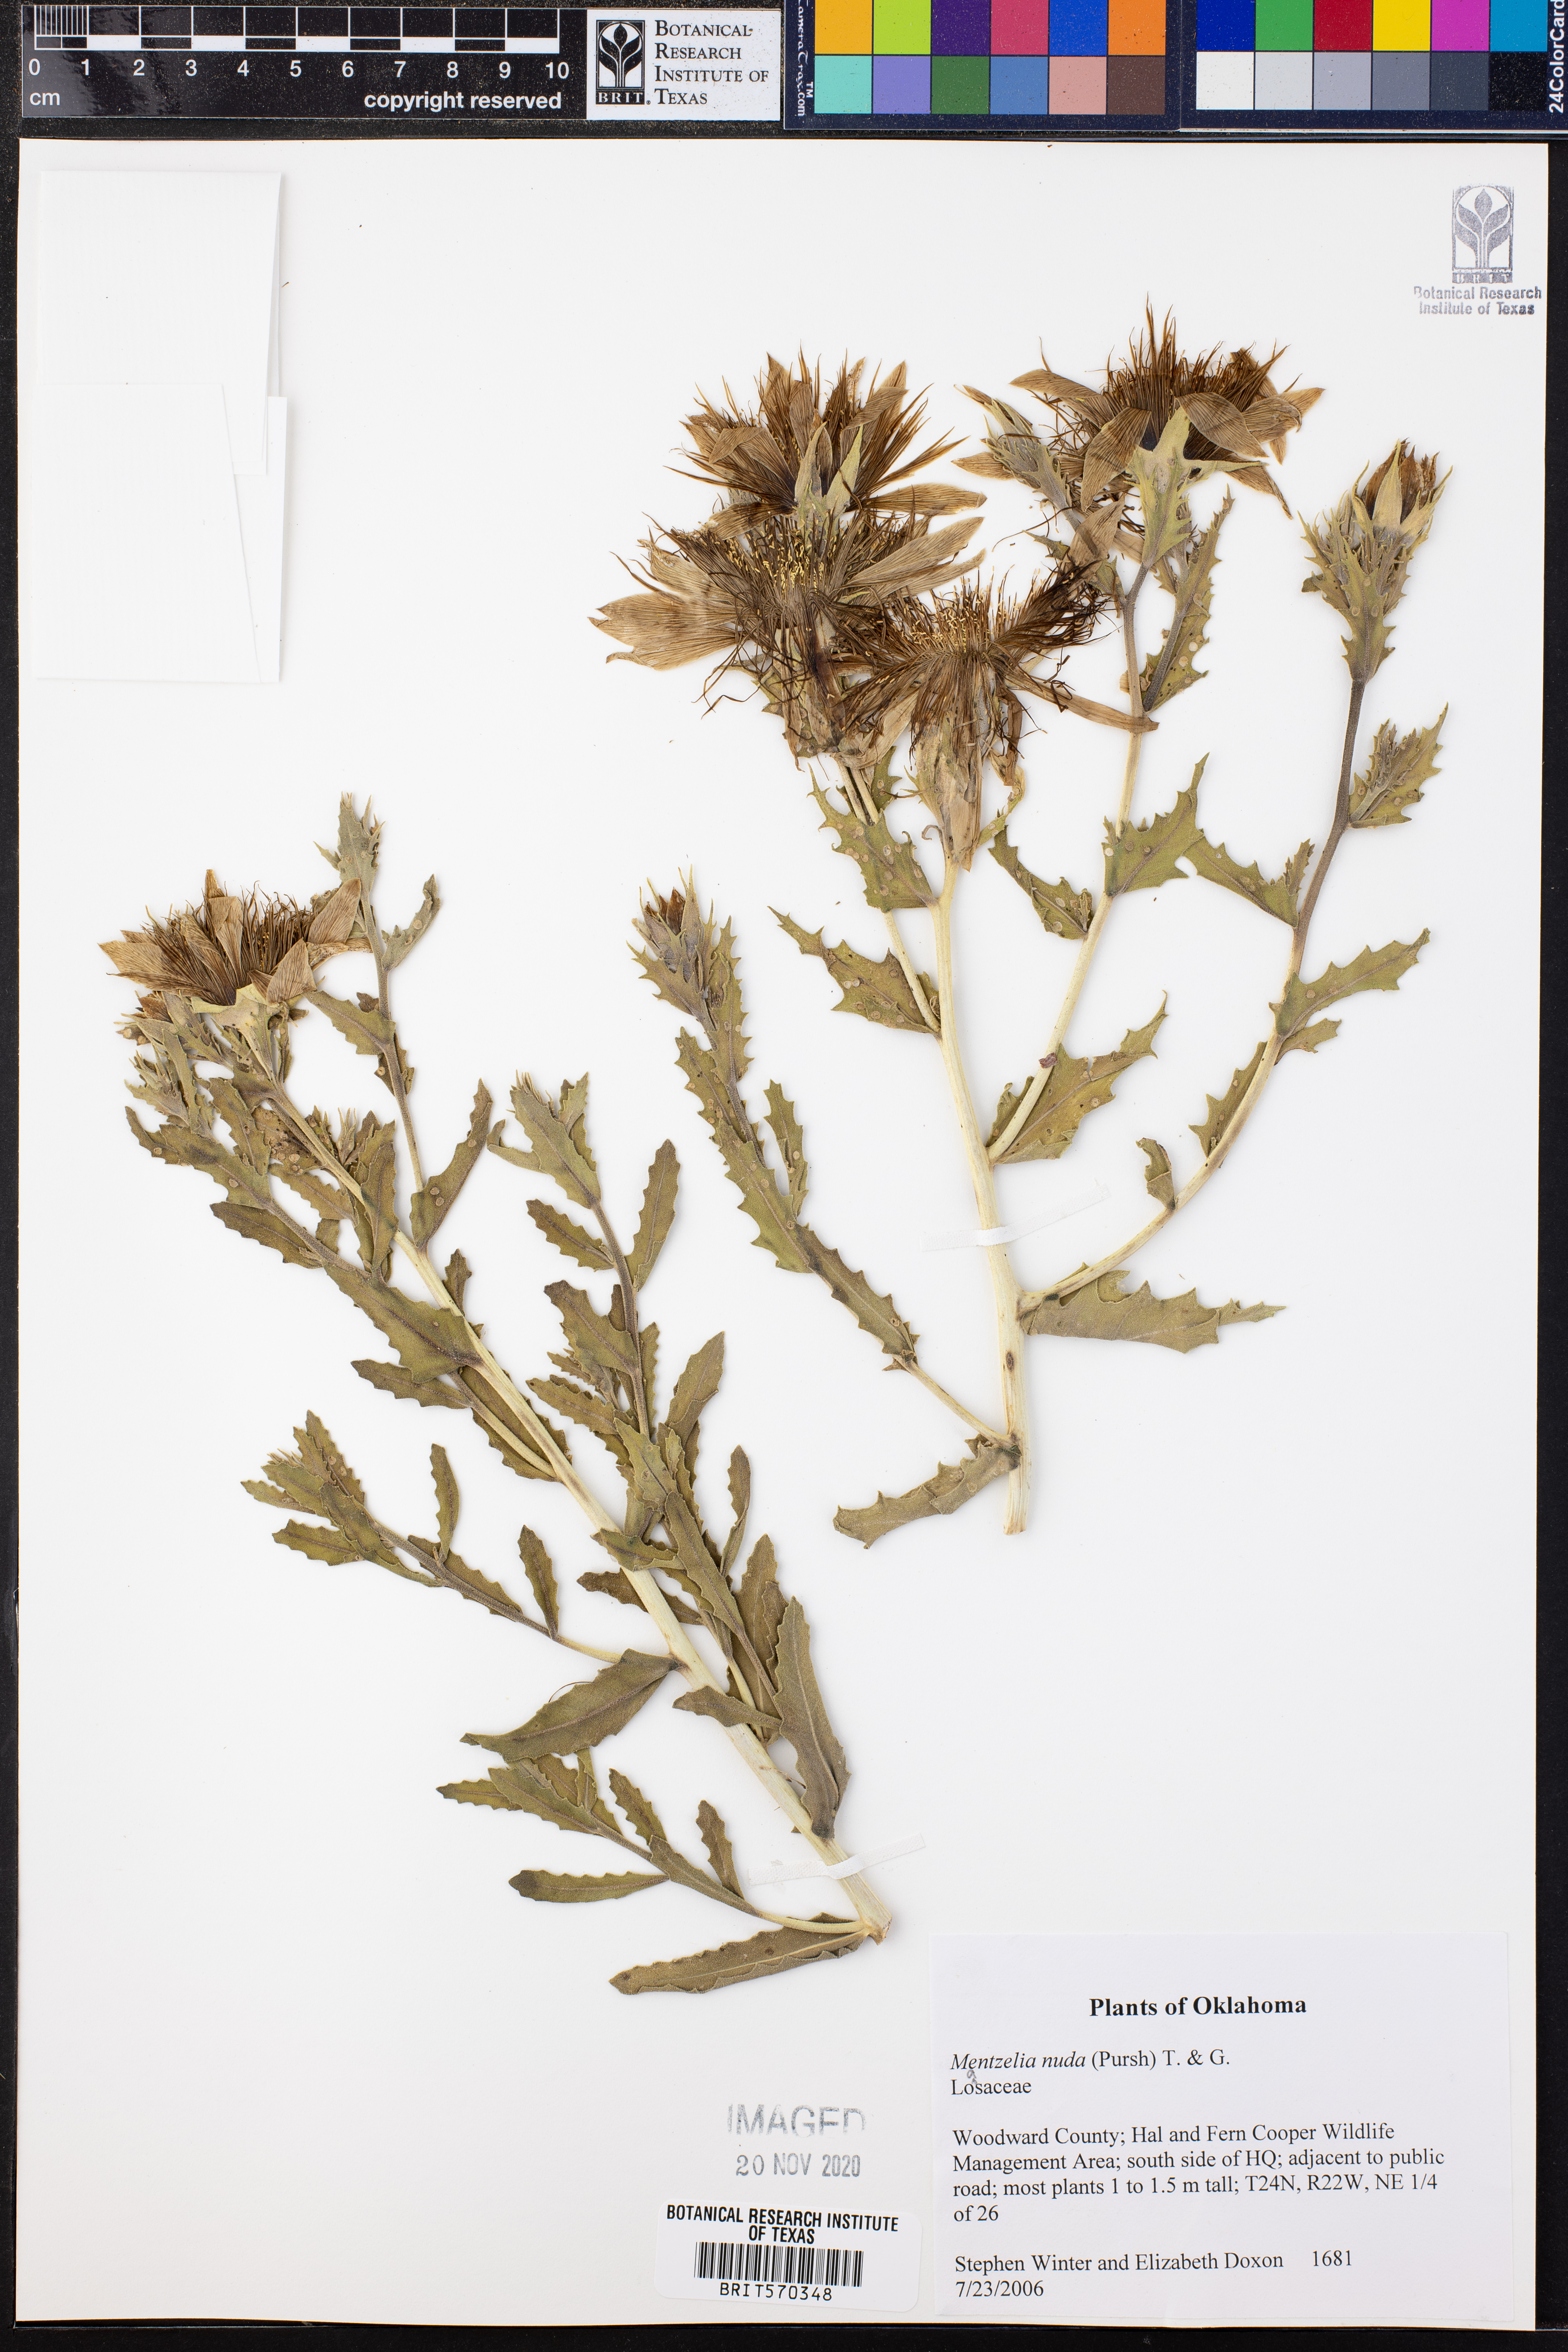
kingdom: Plantae
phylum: Tracheophyta
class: Magnoliopsida
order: Cornales
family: Loasaceae
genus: Mentzelia
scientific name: Mentzelia nuda
